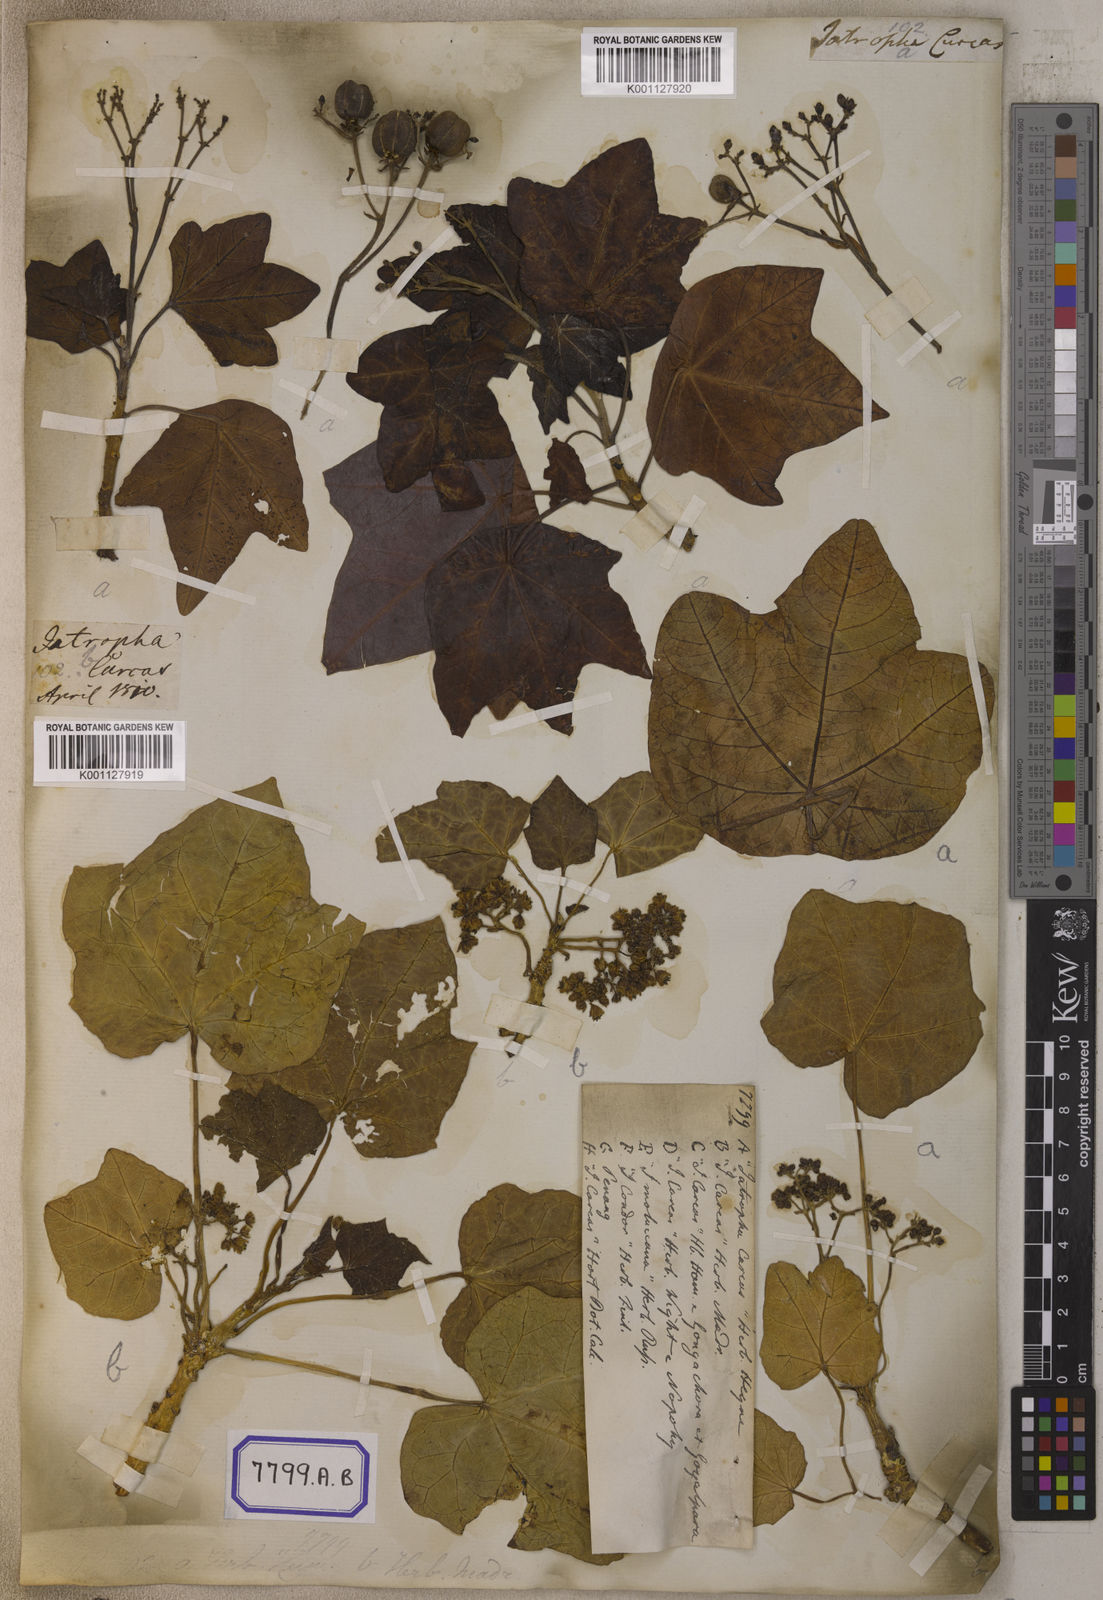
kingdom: Plantae
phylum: Tracheophyta
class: Magnoliopsida
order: Malpighiales
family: Euphorbiaceae
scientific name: Euphorbiaceae
